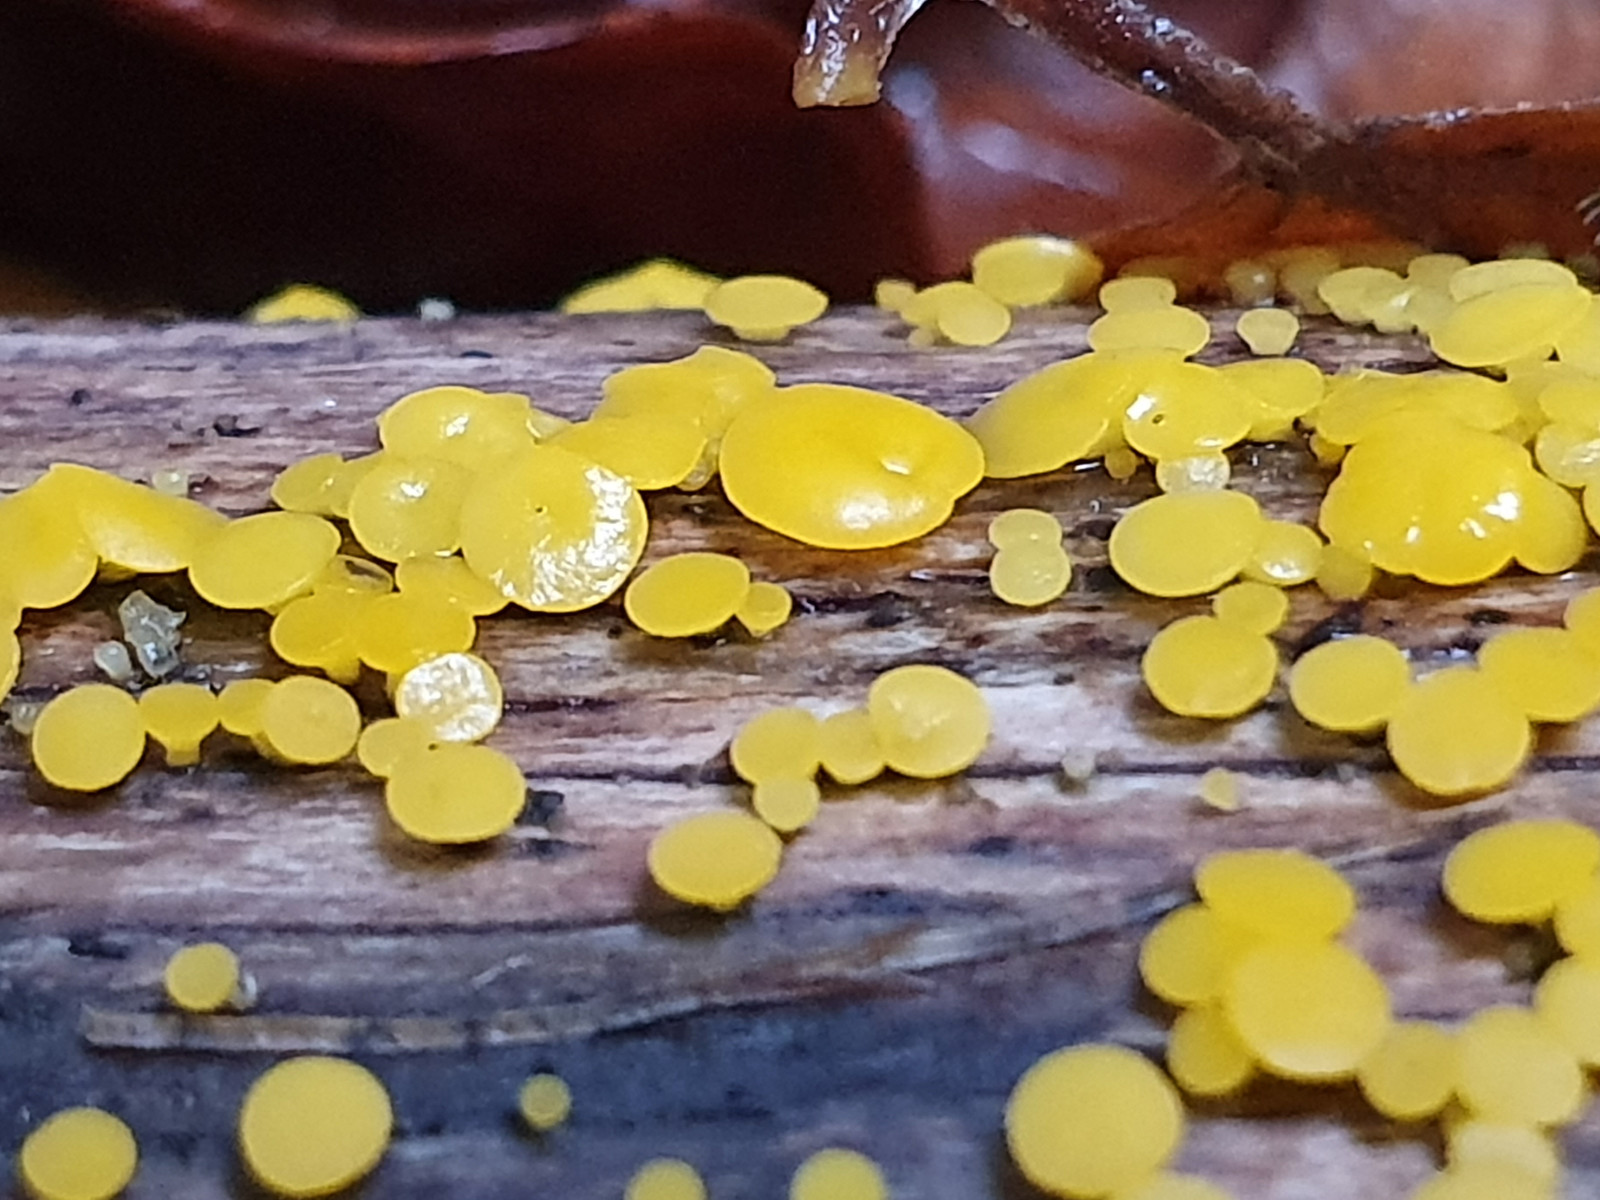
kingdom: Fungi
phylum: Ascomycota
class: Leotiomycetes
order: Helotiales
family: Pezizellaceae
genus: Calycina
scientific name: Calycina citrina
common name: almindelig gulskive
